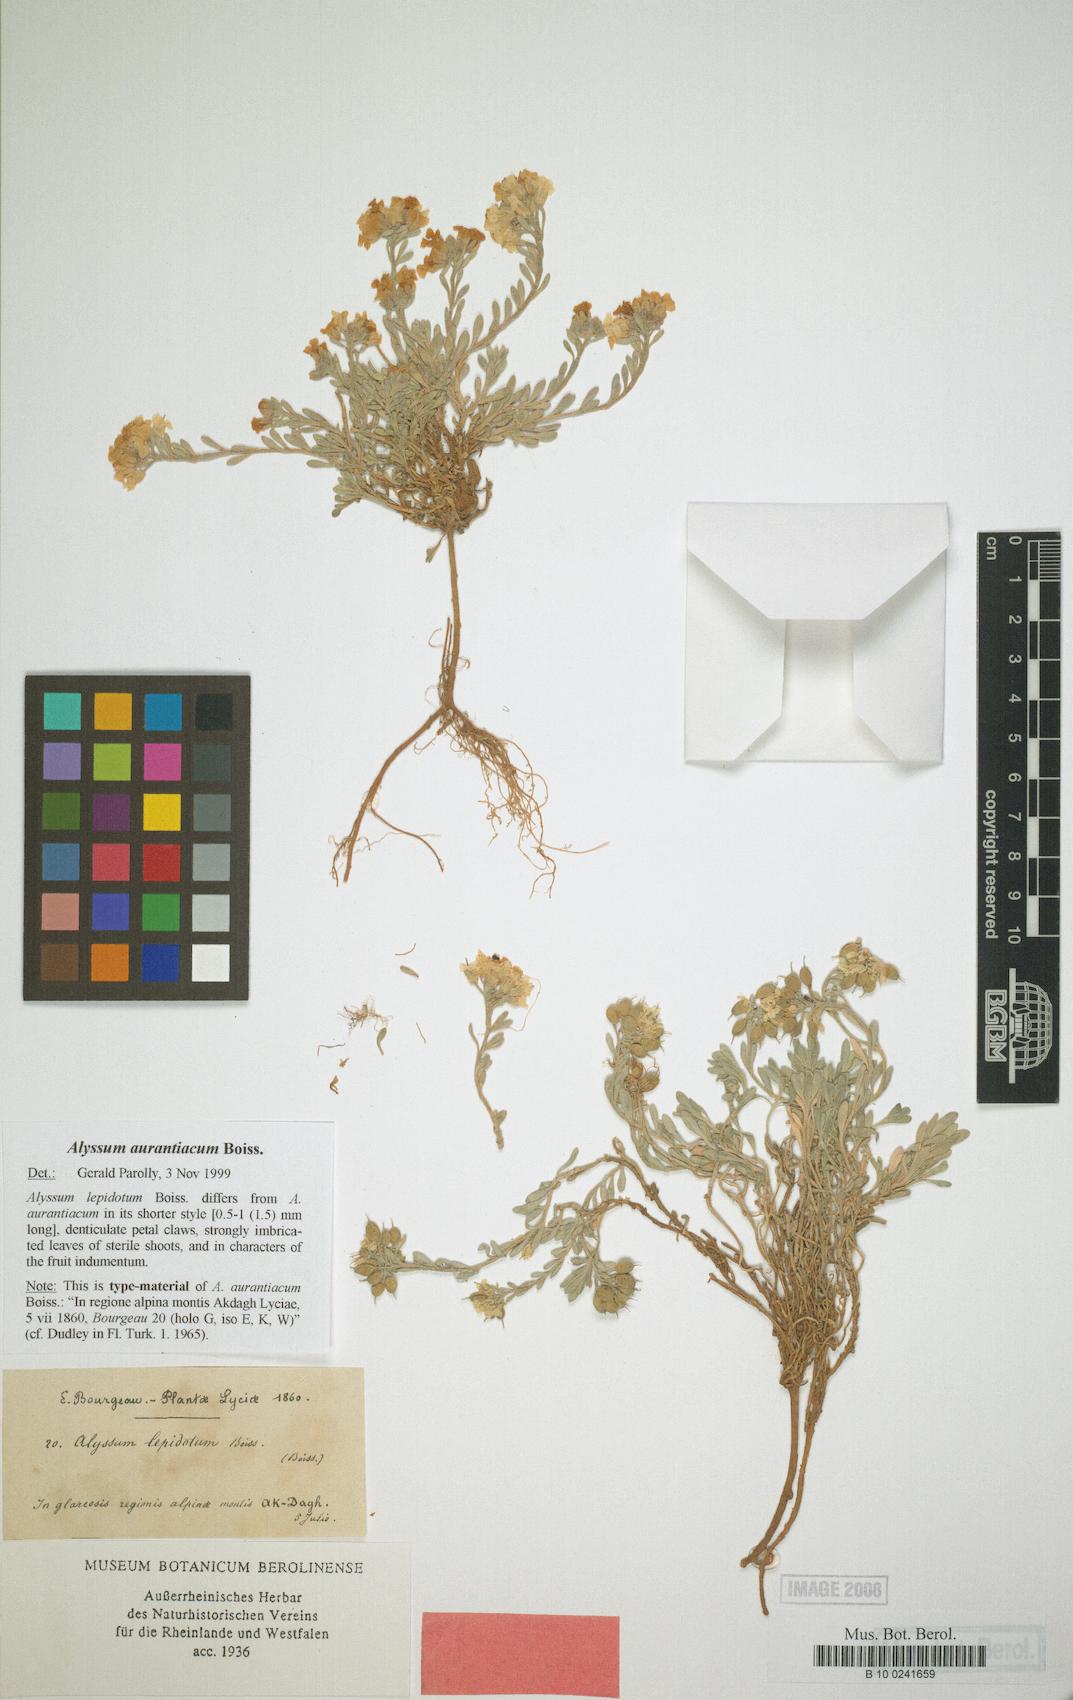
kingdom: Plantae
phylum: Tracheophyta
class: Magnoliopsida
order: Brassicales
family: Brassicaceae
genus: Alyssum
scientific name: Alyssum aurantiacum
